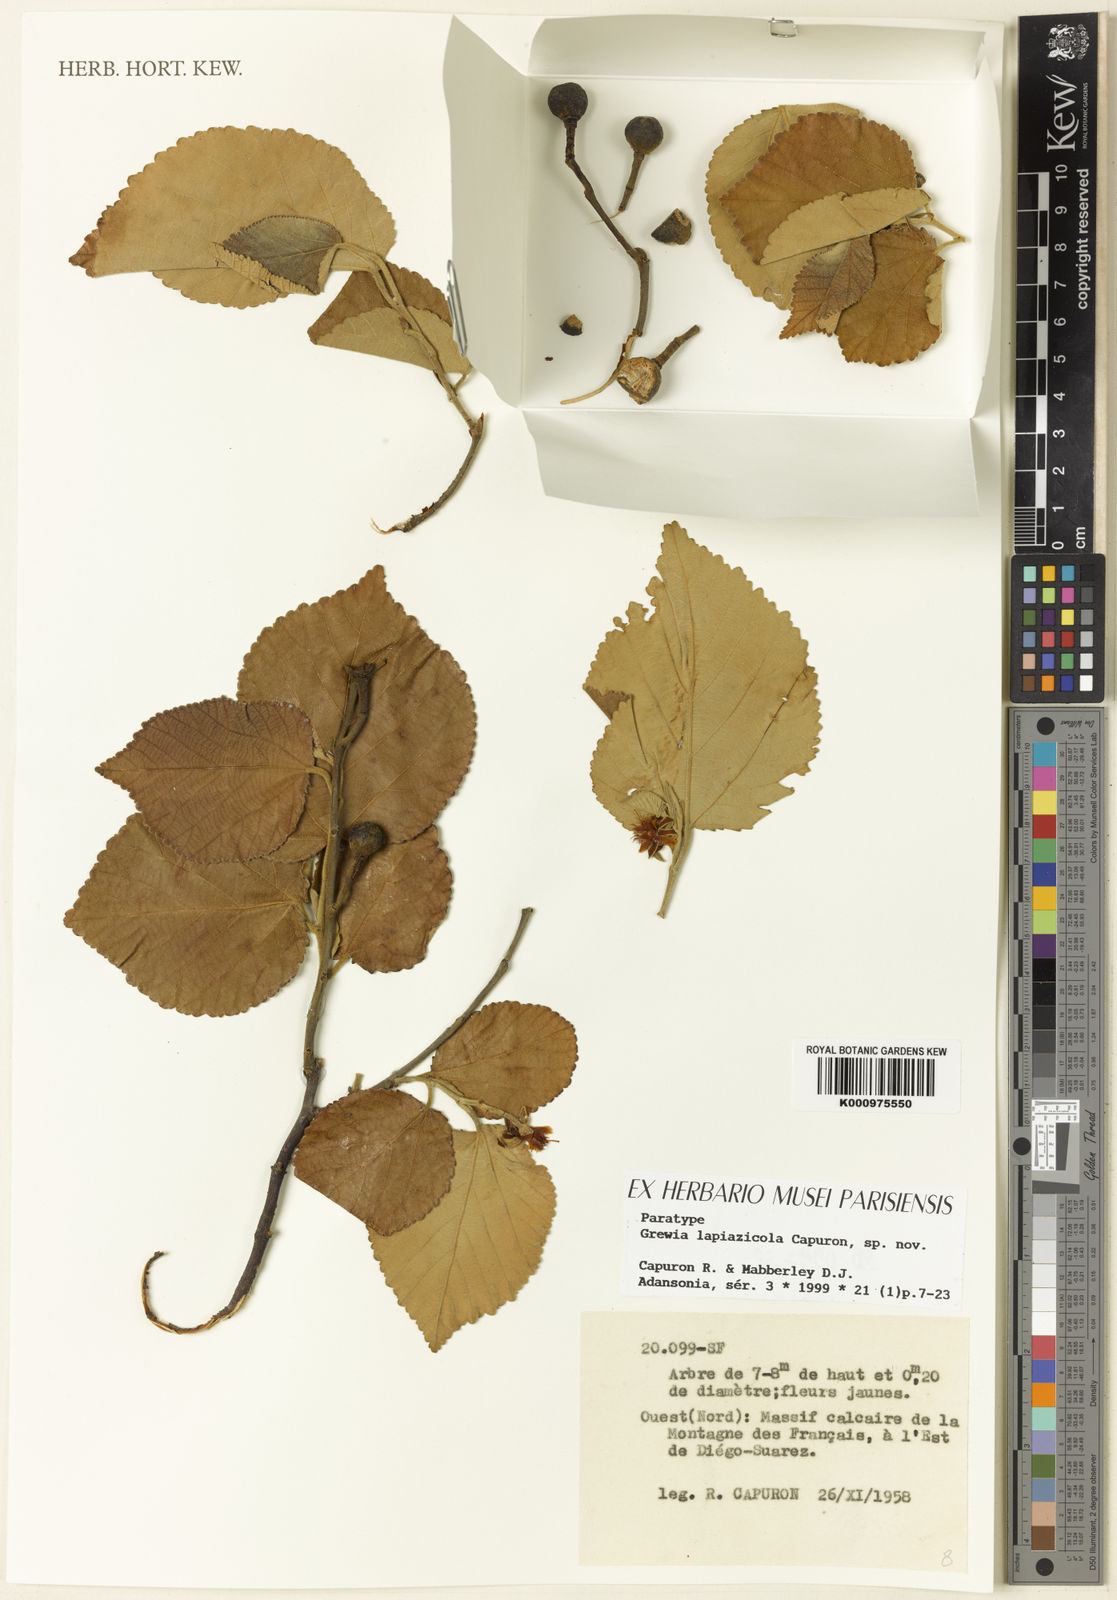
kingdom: Plantae
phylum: Tracheophyta
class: Magnoliopsida
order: Malvales
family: Malvaceae
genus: Grewia
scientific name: Grewia lapiazicola
